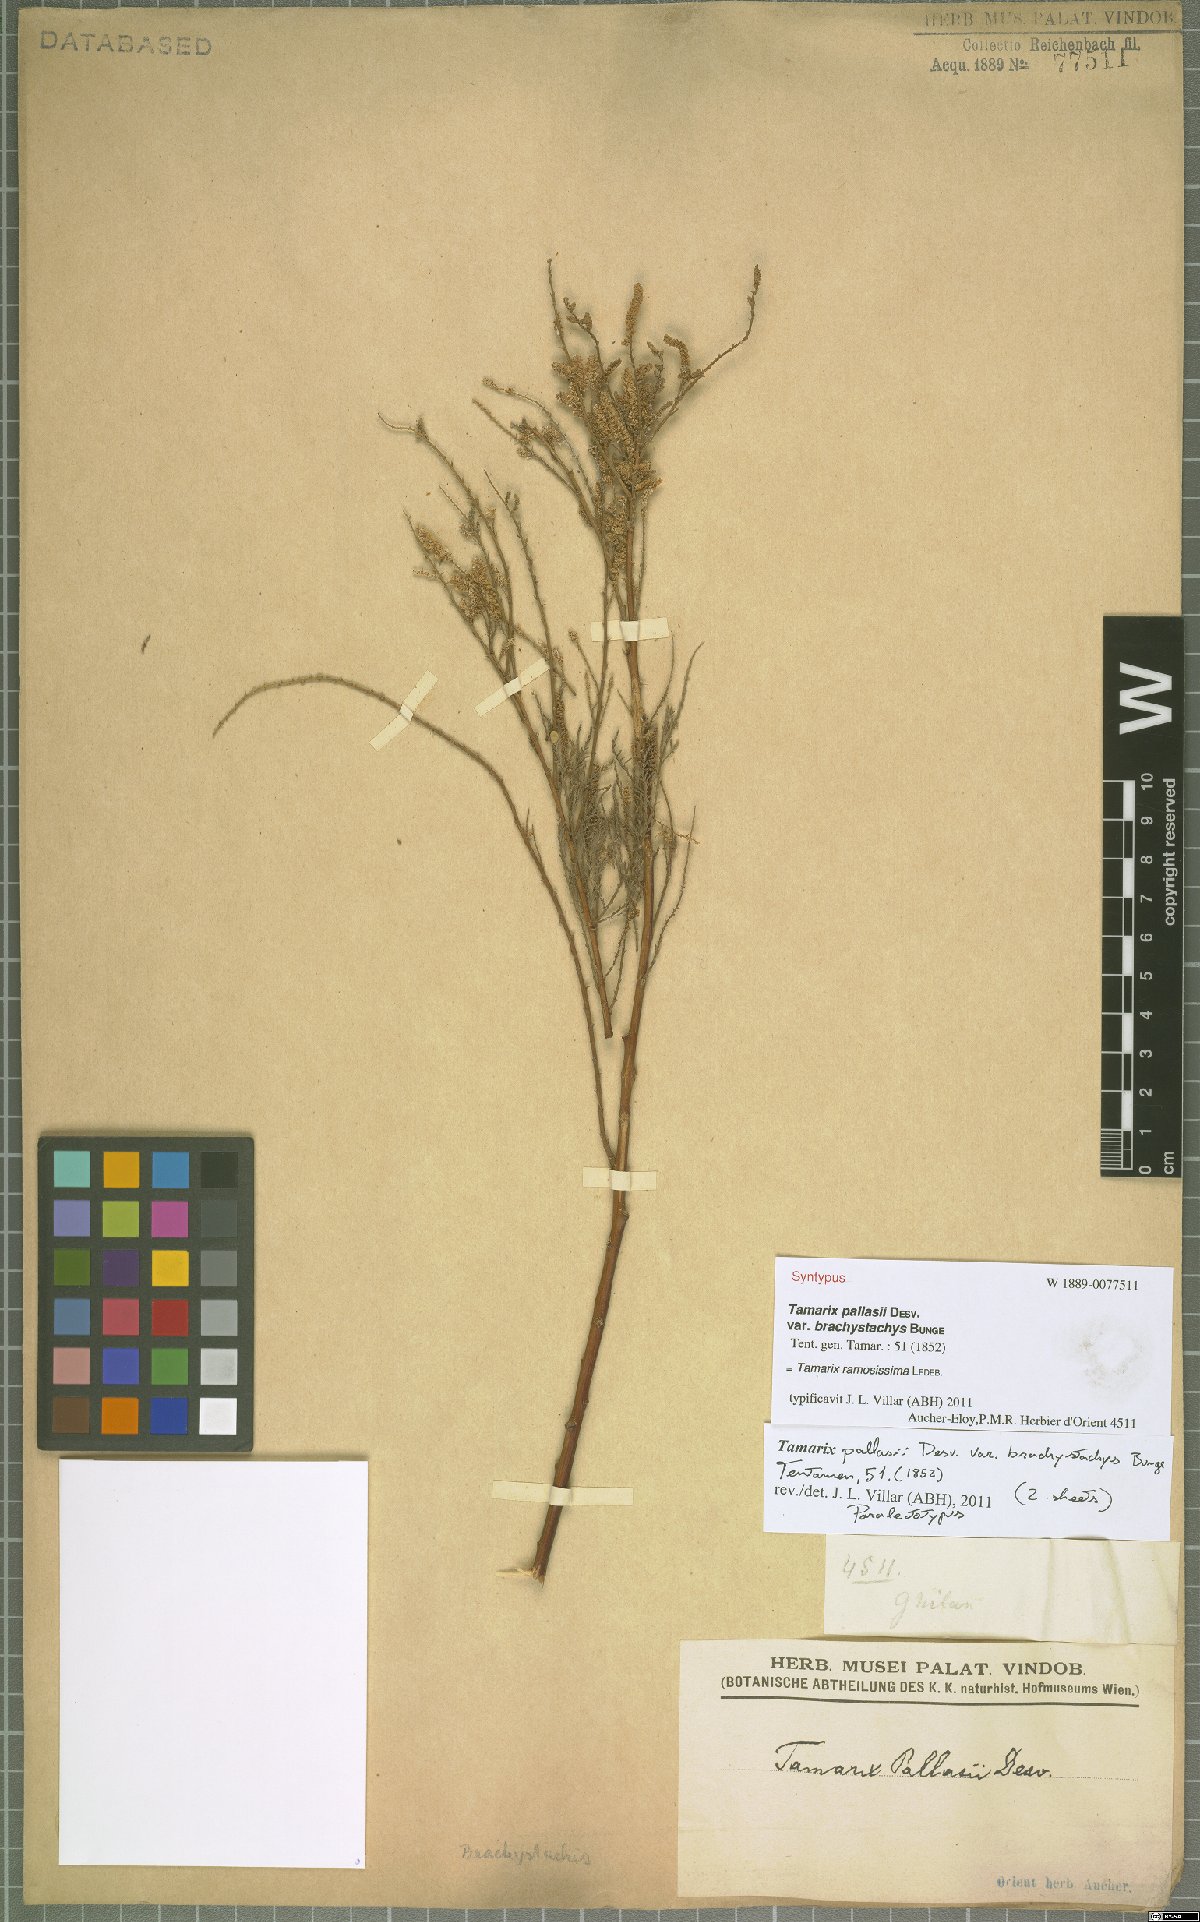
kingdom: Plantae
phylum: Tracheophyta
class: Magnoliopsida
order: Caryophyllales
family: Tamaricaceae
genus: Tamarix
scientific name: Tamarix ramosissima
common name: Pink tamarisk
